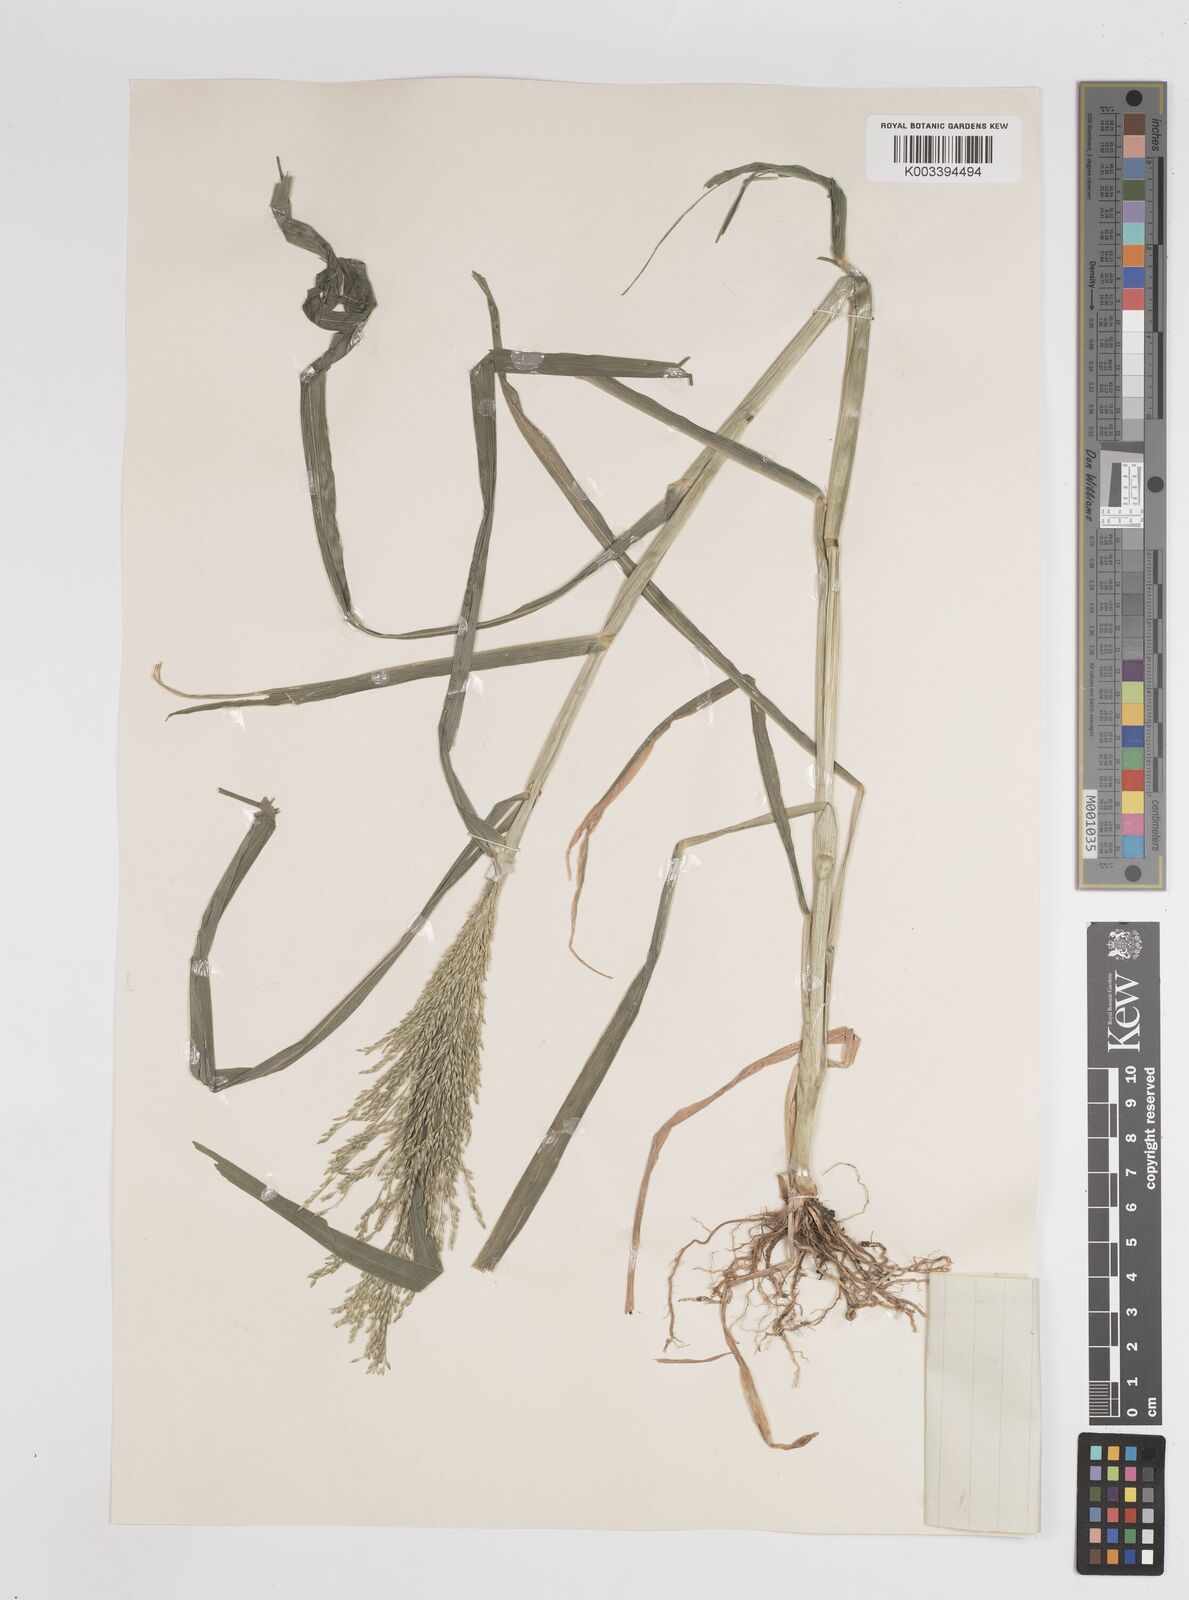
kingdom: Plantae
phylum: Tracheophyta
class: Liliopsida
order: Poales
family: Poaceae
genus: Panicum
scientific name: Panicum dichotomiflorum
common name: Autumn millet
